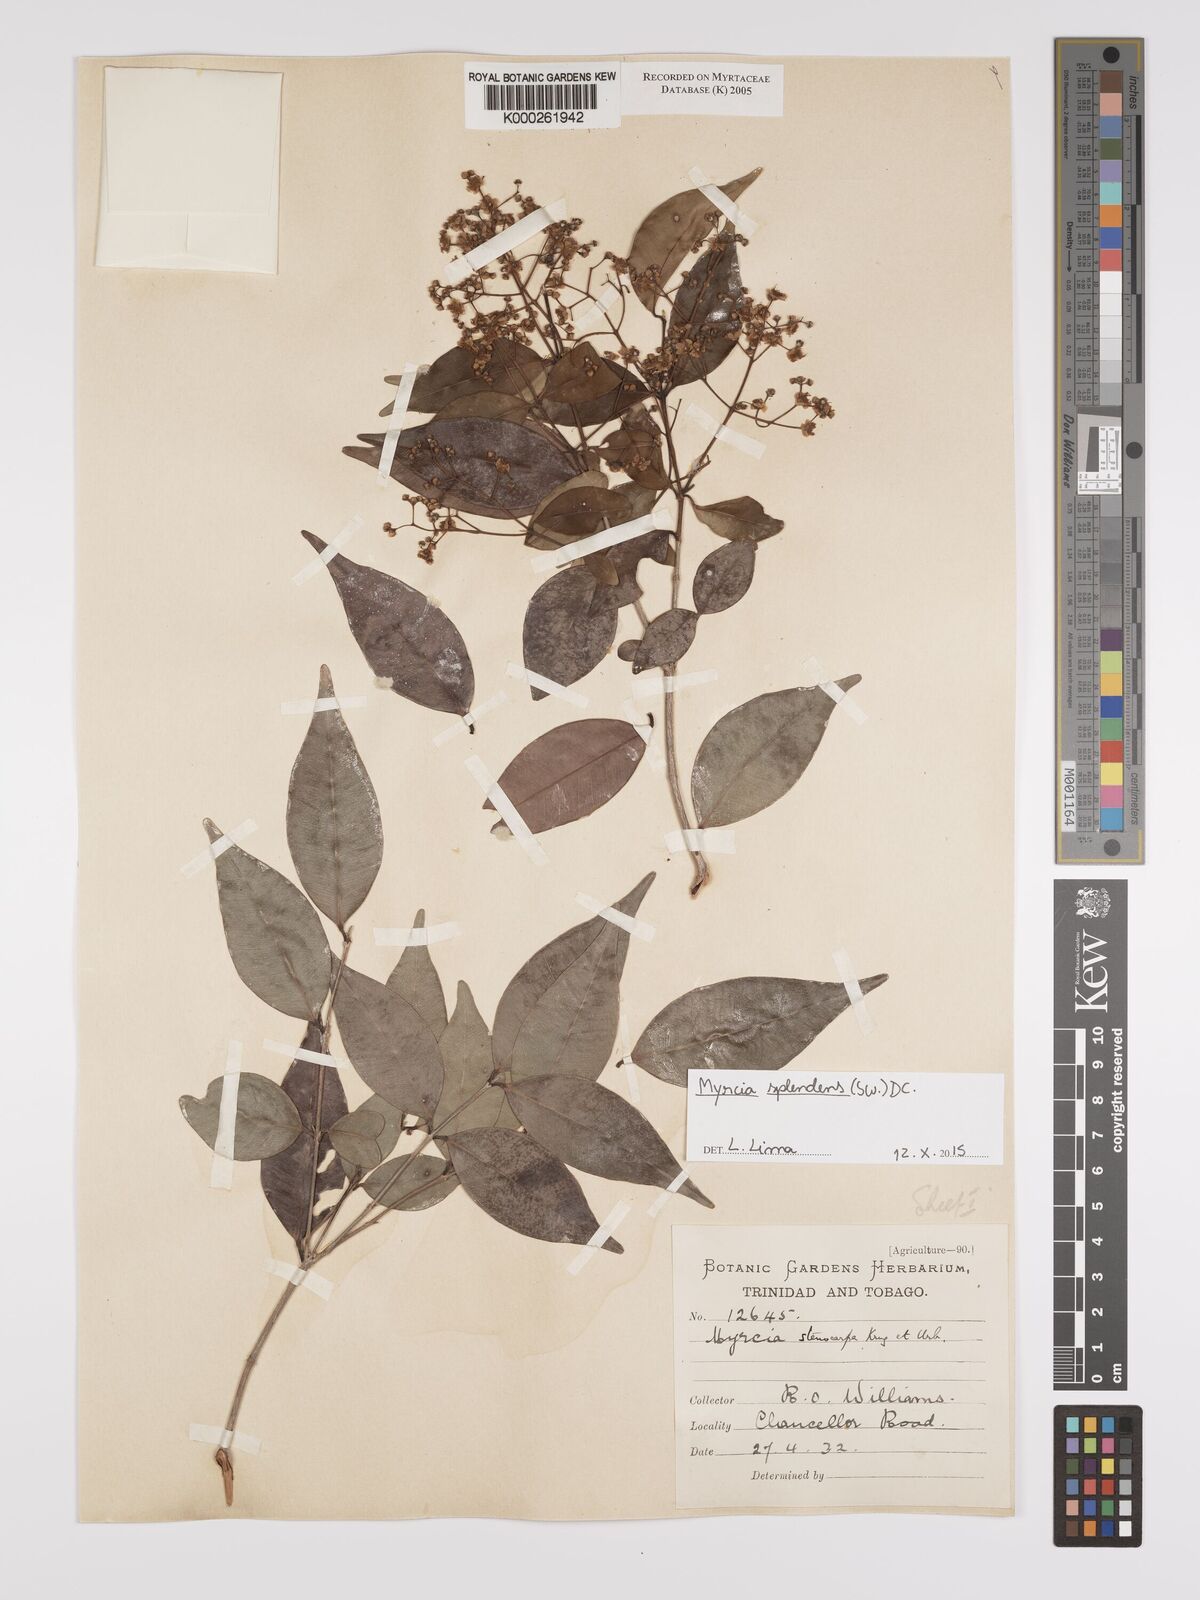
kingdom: Plantae
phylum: Tracheophyta
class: Magnoliopsida
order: Myrtales
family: Myrtaceae
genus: Myrcia
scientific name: Myrcia stenocarpa
